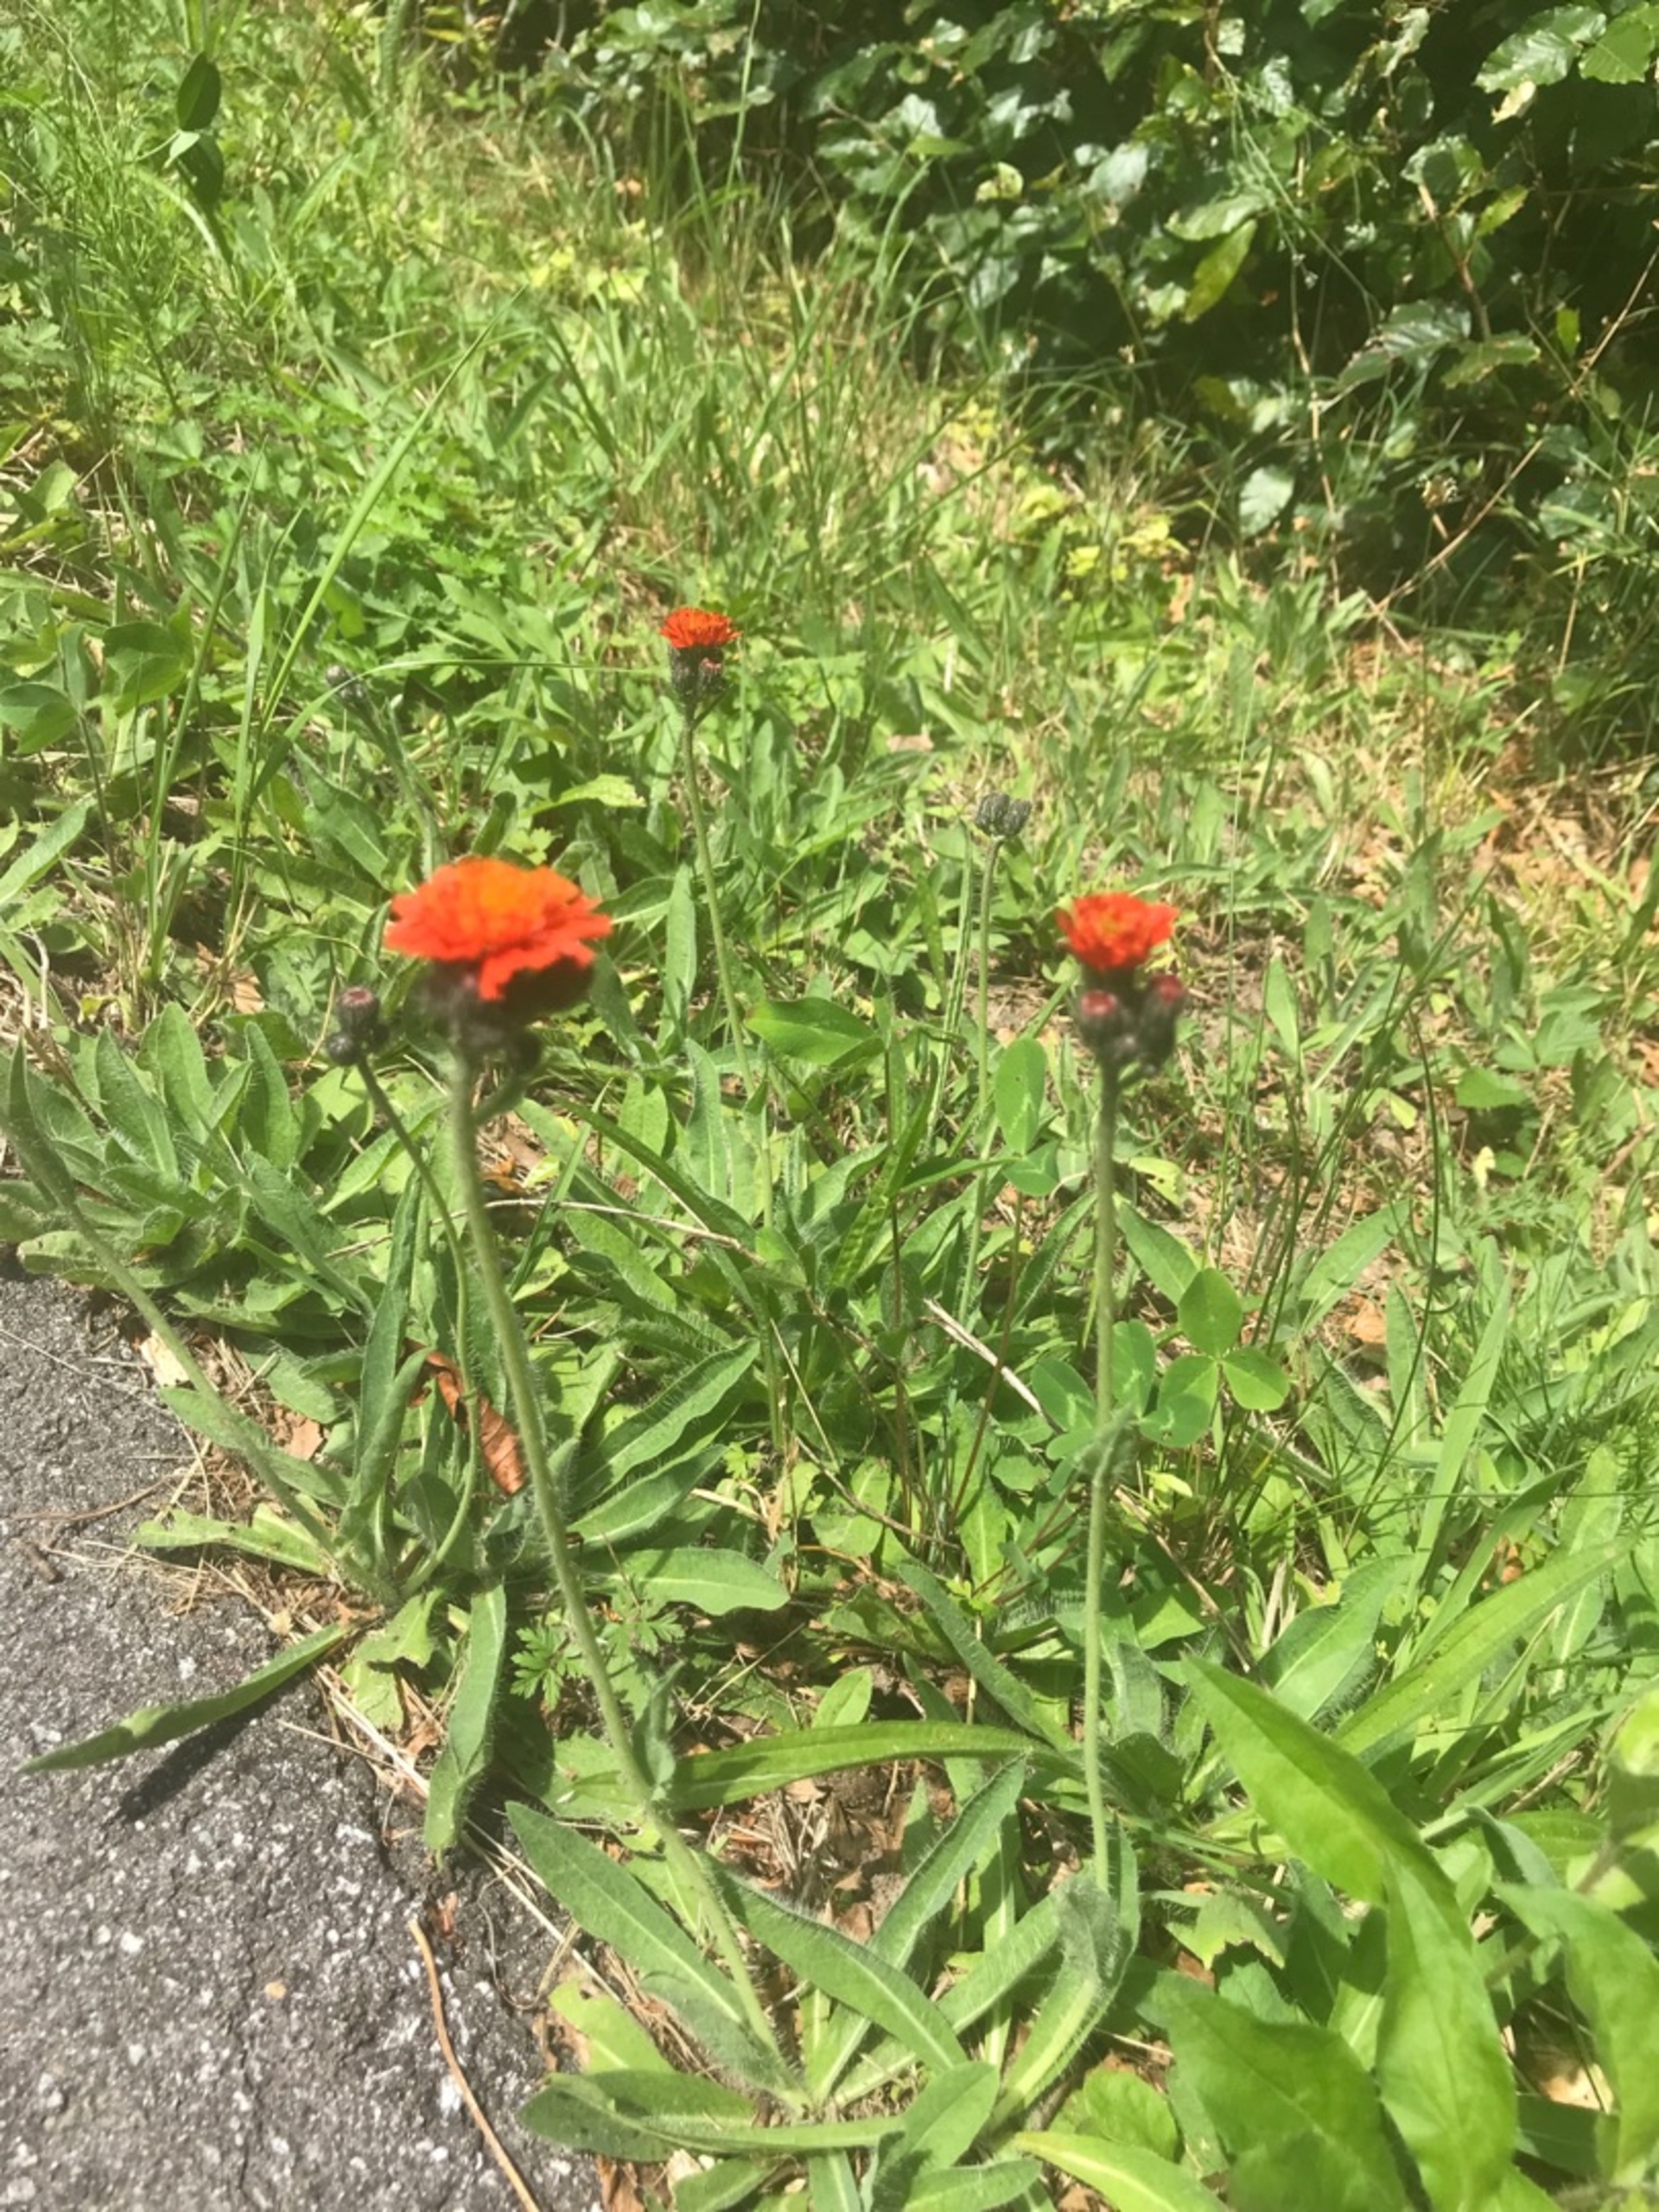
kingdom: Plantae
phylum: Tracheophyta
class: Magnoliopsida
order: Asterales
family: Asteraceae
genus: Pilosella
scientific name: Pilosella aurantiaca
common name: Pomerans-høgeurt
